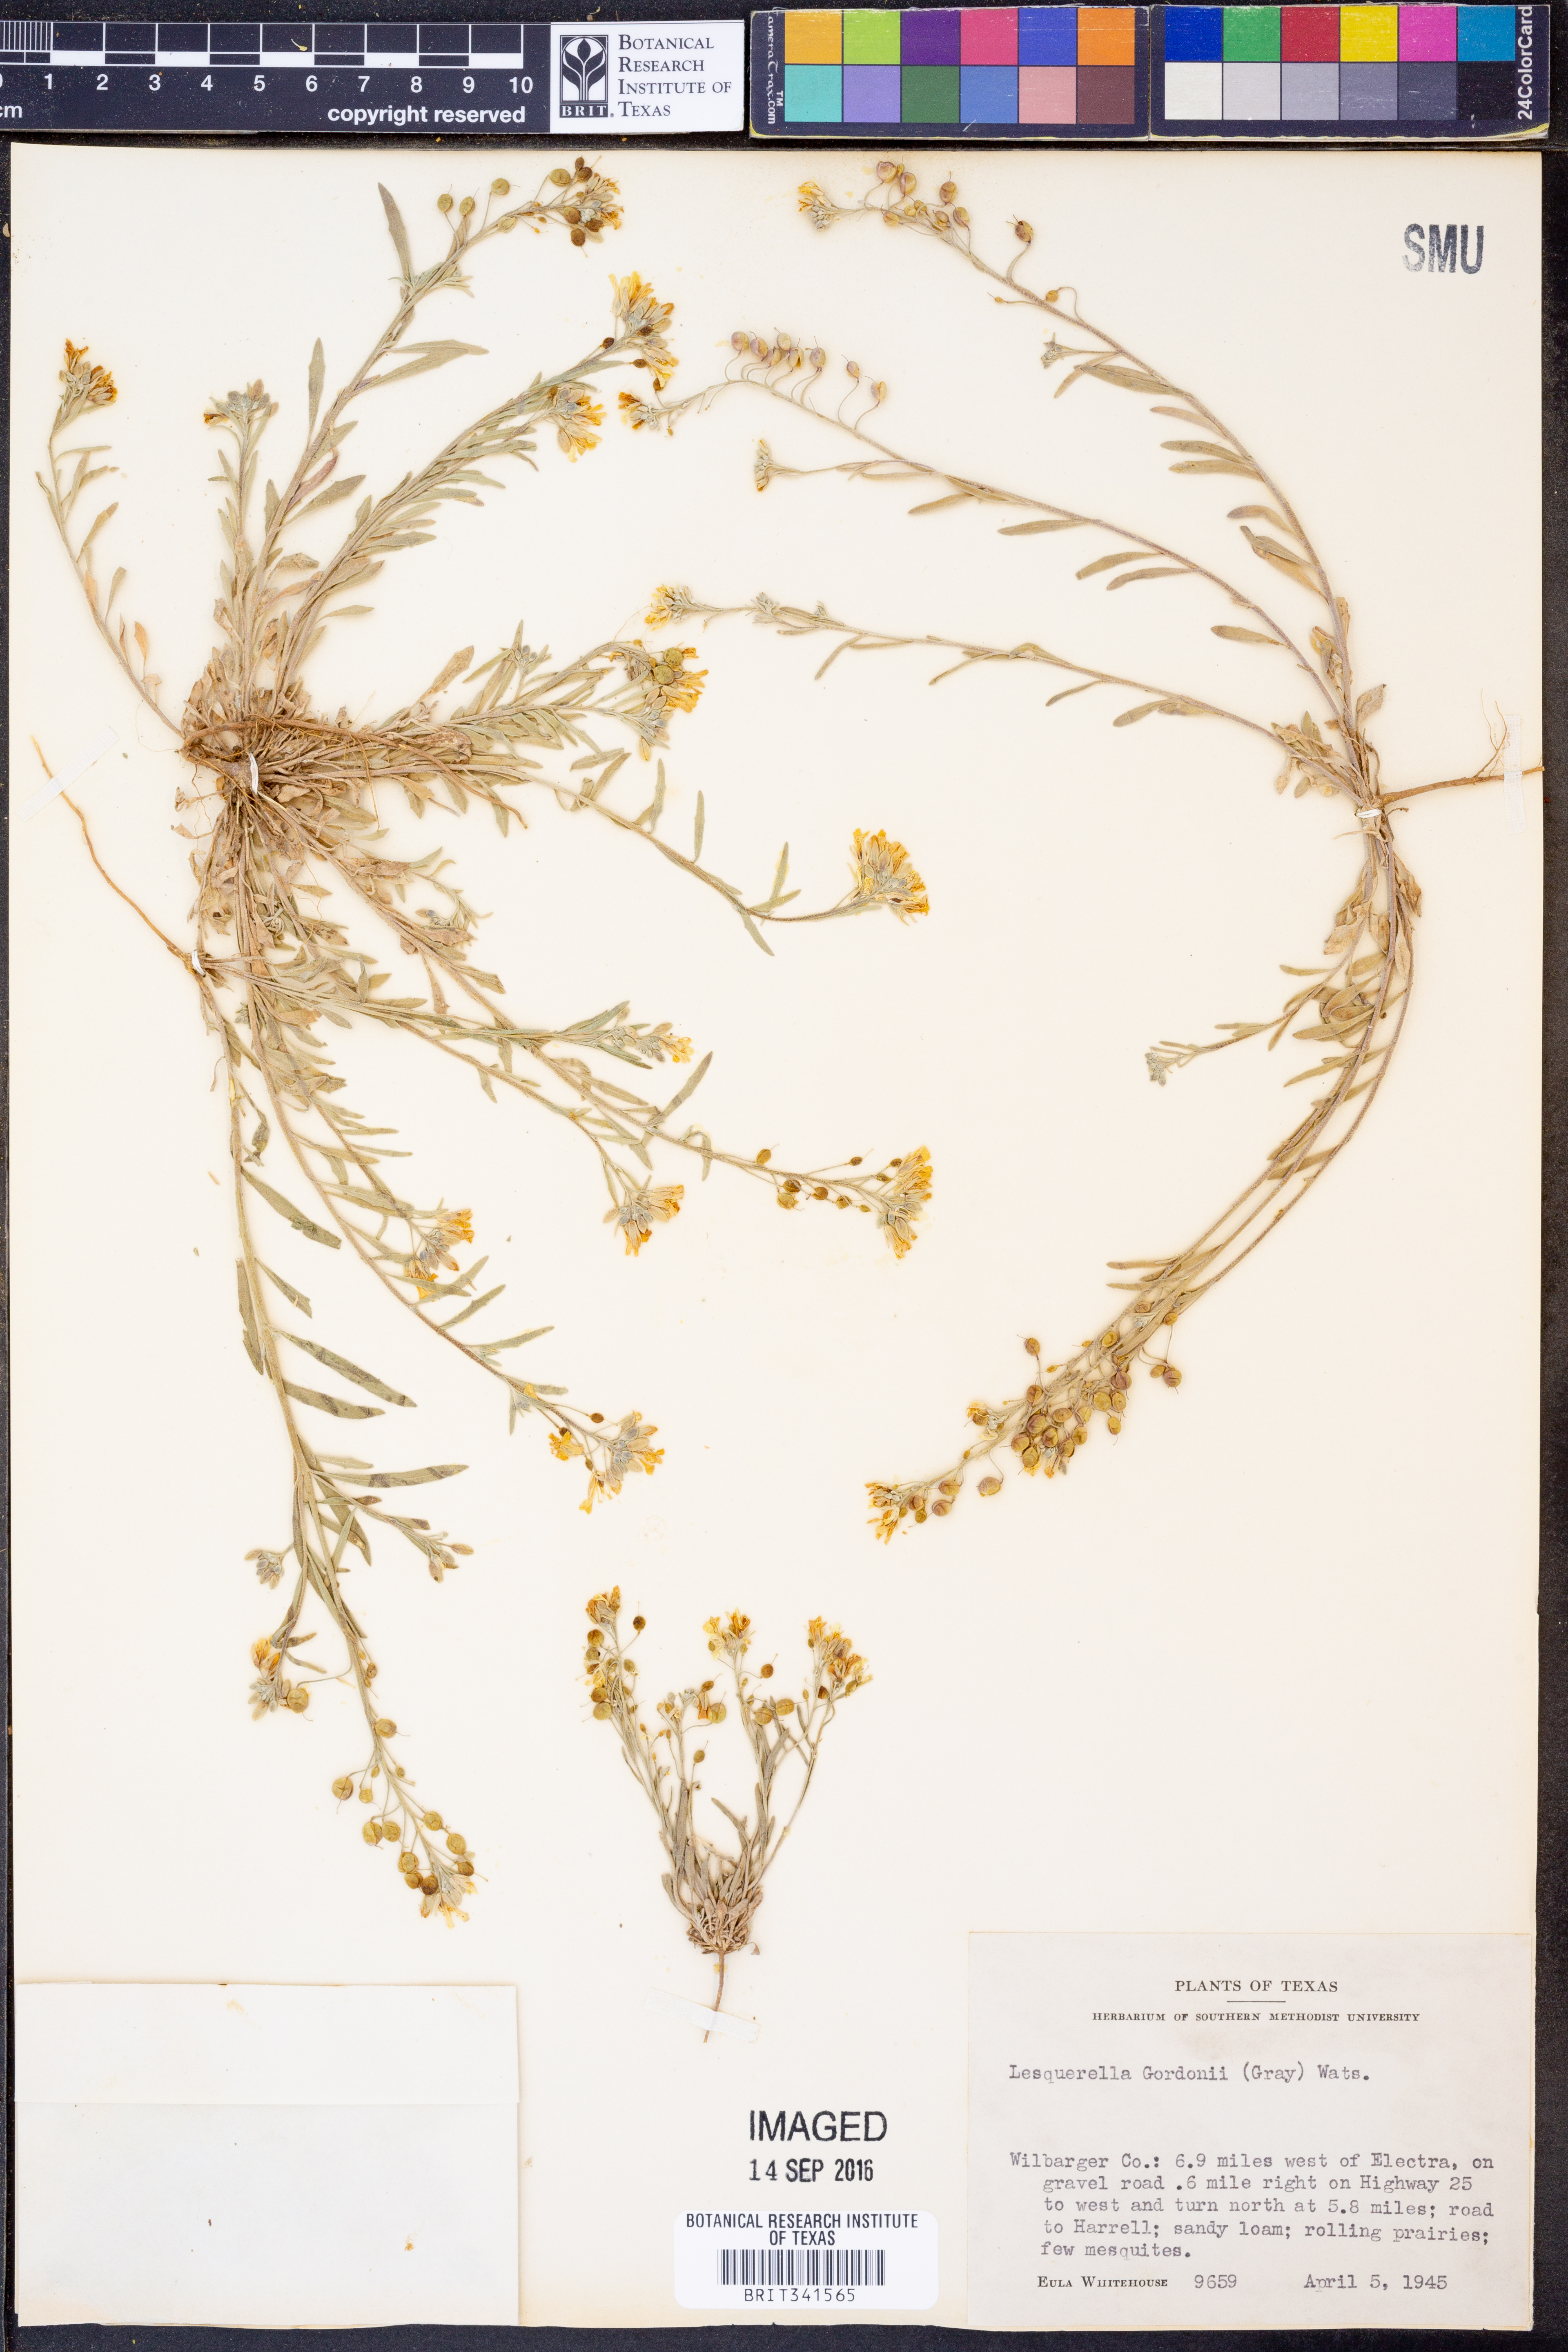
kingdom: Plantae
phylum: Tracheophyta
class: Magnoliopsida
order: Brassicales
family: Brassicaceae
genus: Physaria
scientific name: Physaria gordonii
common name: Gordon's bladderpod
